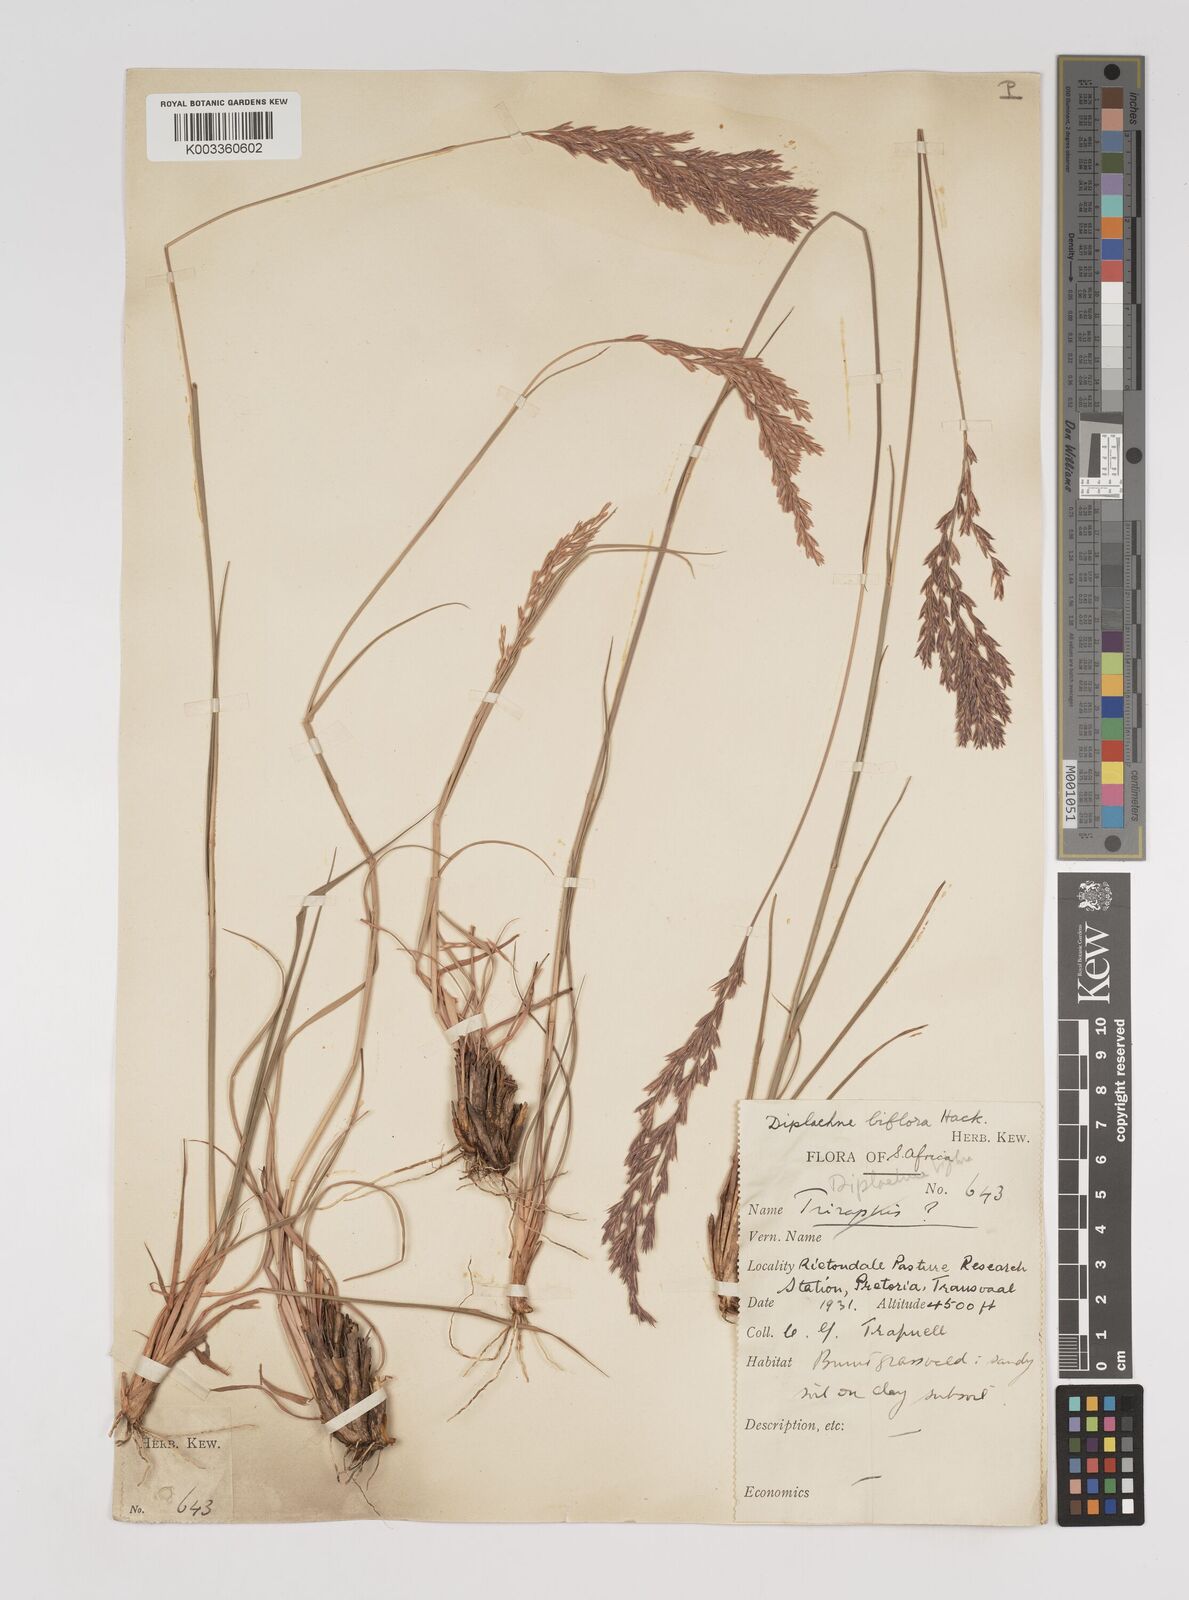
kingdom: Plantae
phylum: Tracheophyta
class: Liliopsida
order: Poales
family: Poaceae
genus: Bewsia
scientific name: Bewsia biflora
